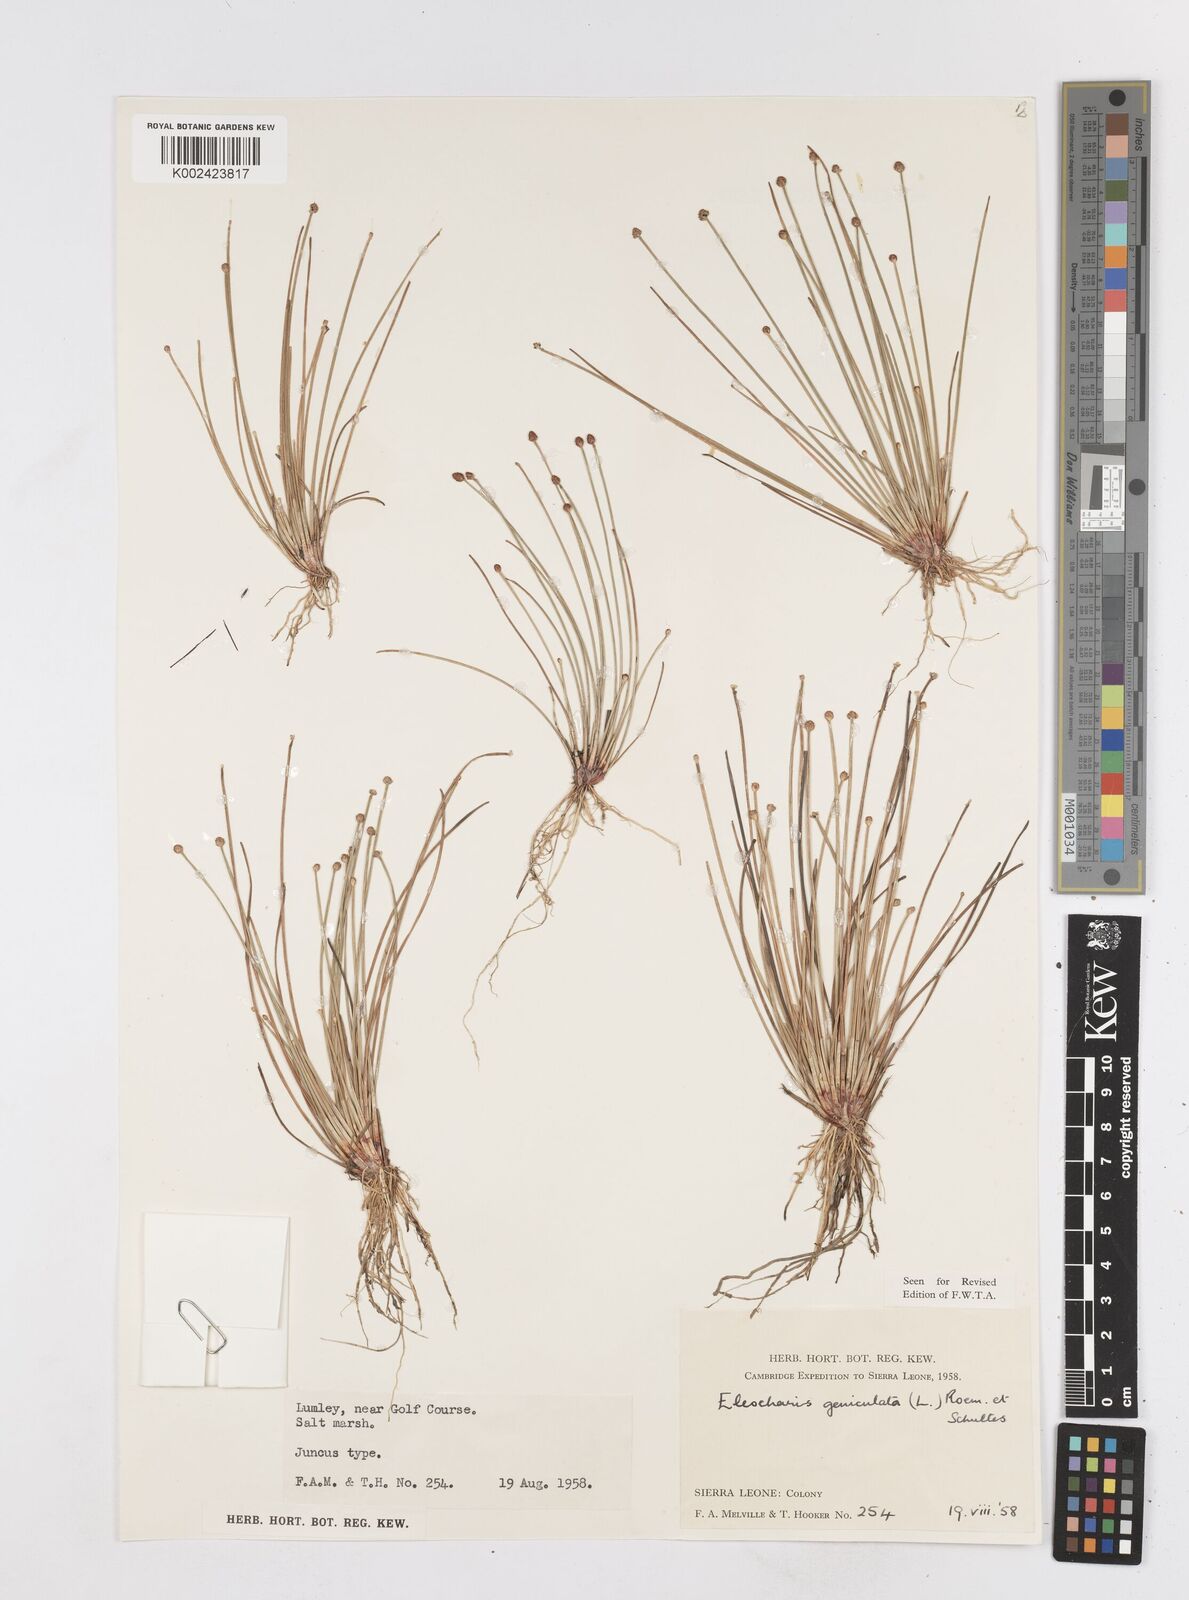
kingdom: Plantae
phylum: Tracheophyta
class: Liliopsida
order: Poales
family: Cyperaceae
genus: Eleocharis
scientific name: Eleocharis geniculata
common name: Canada spikesedge
